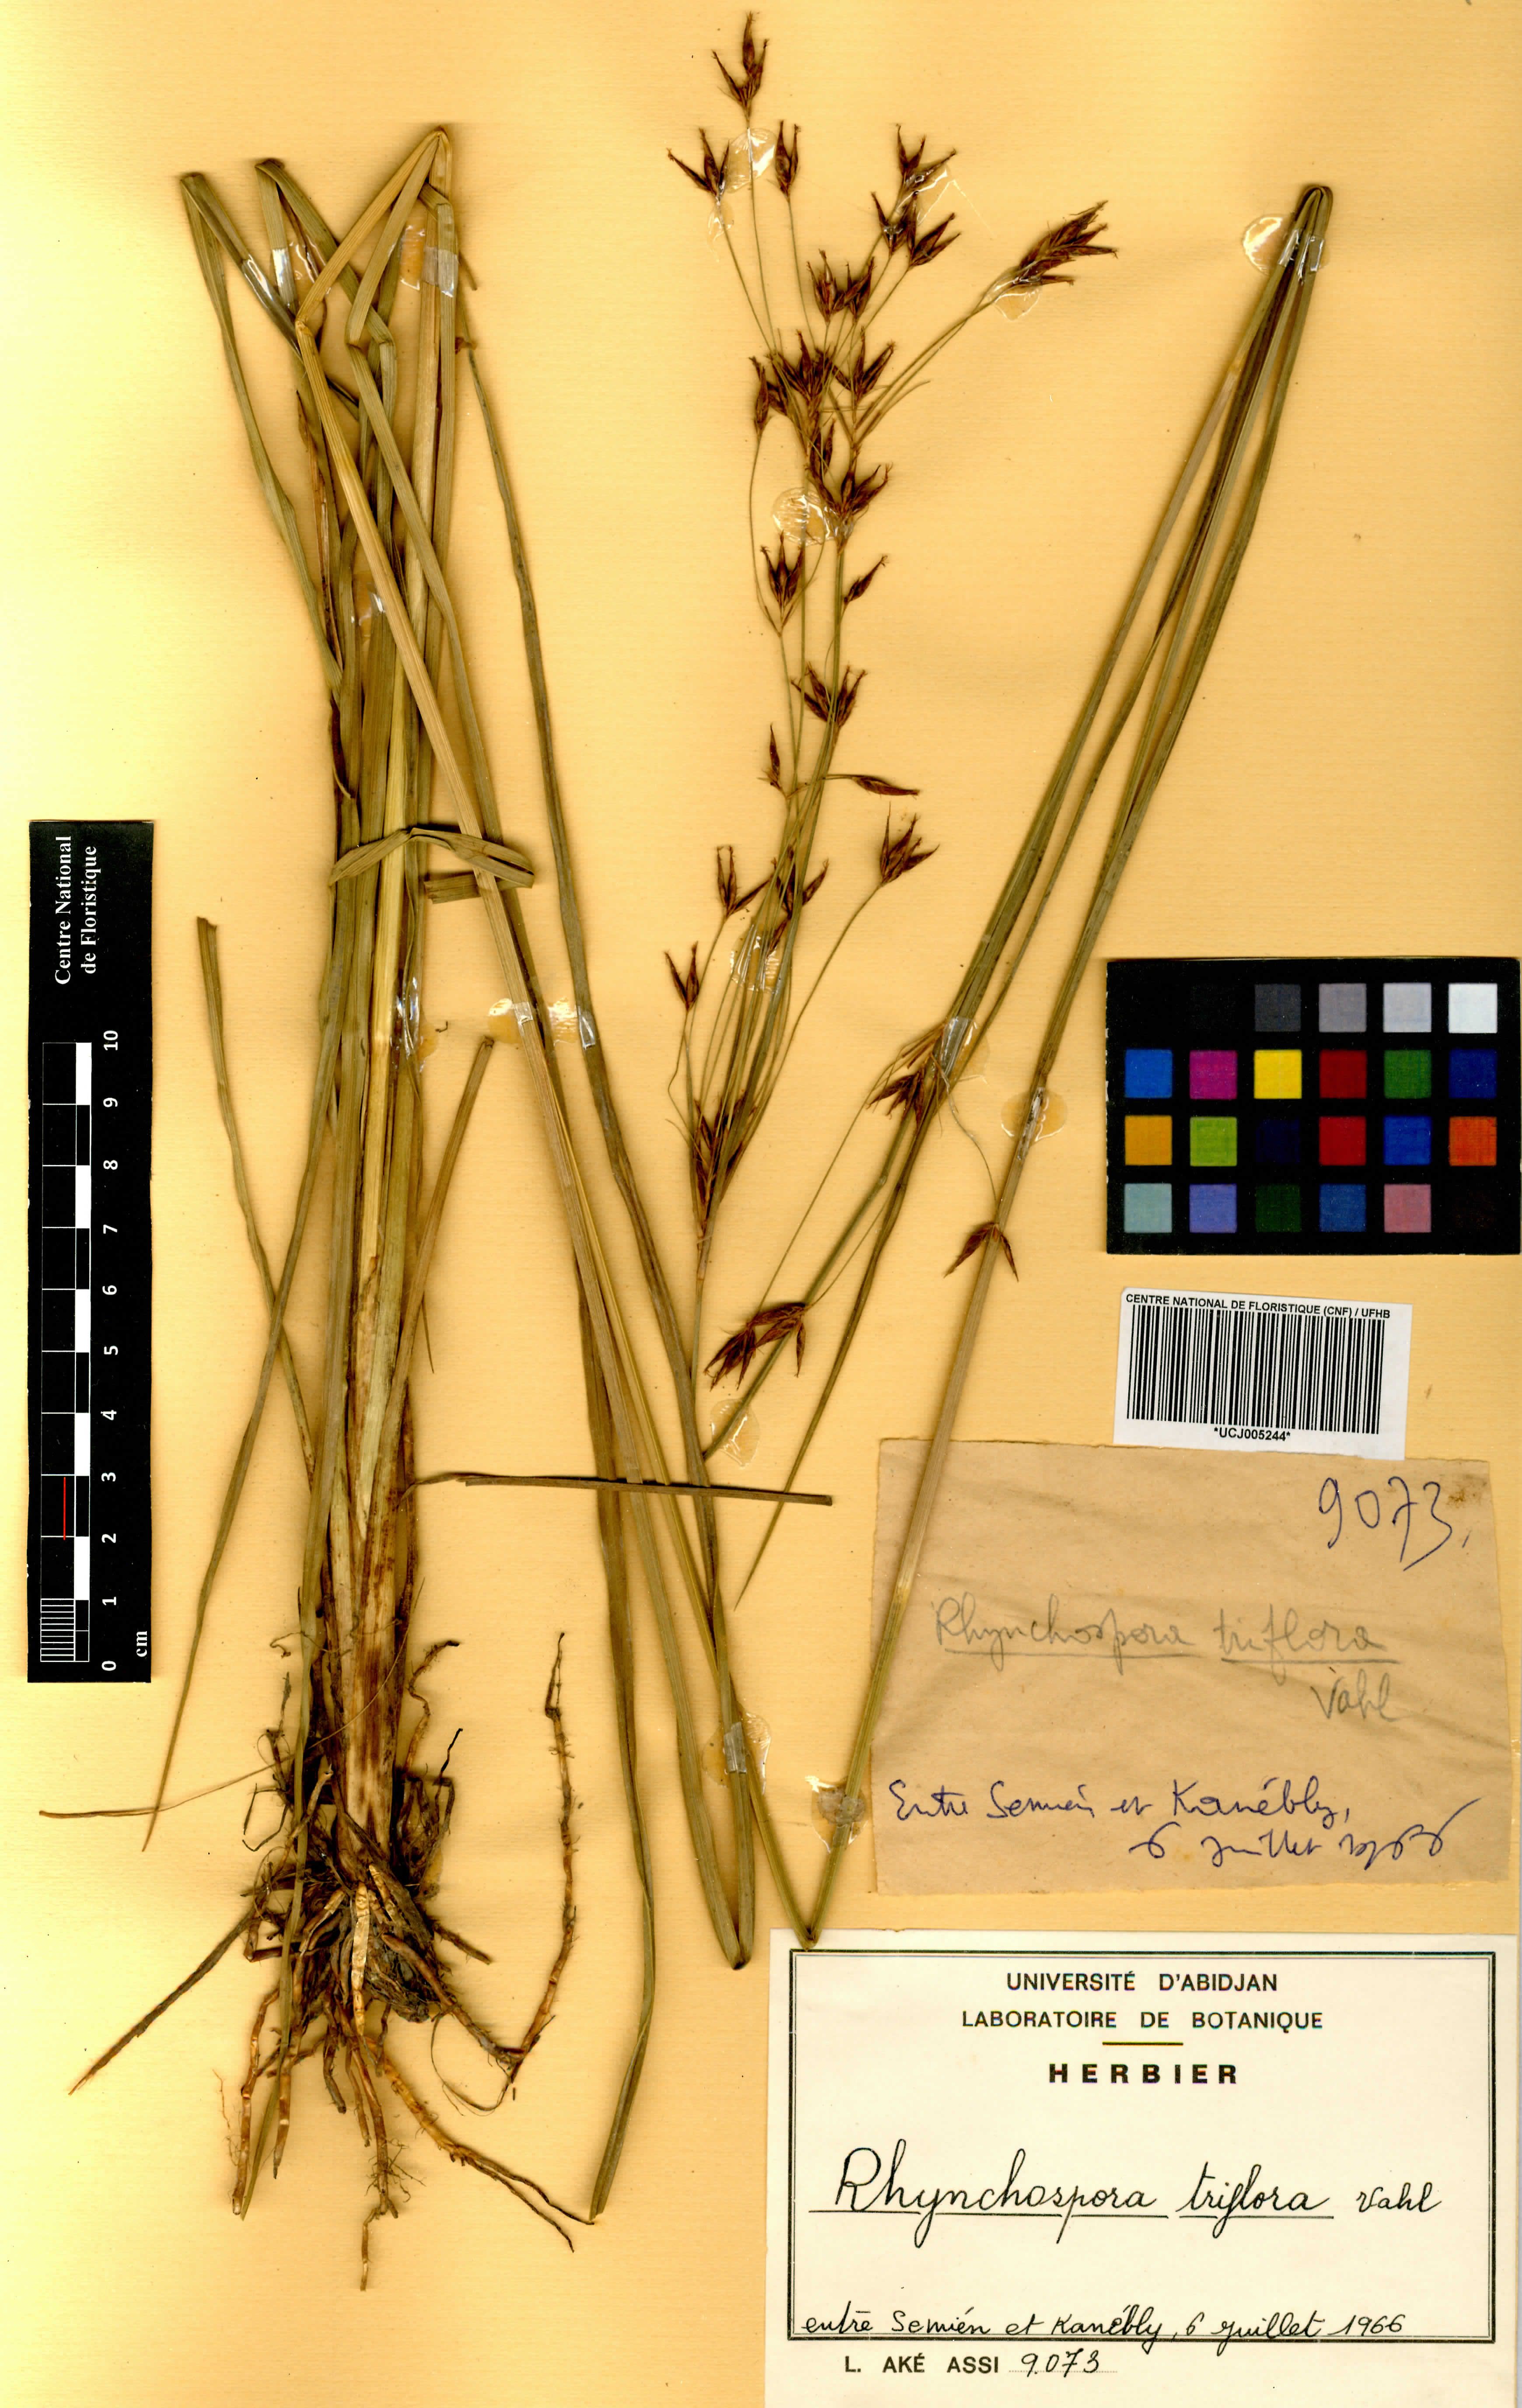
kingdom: Plantae
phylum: Tracheophyta
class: Liliopsida
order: Poales
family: Cyperaceae
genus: Rhynchospora
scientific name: Rhynchospora triflora
